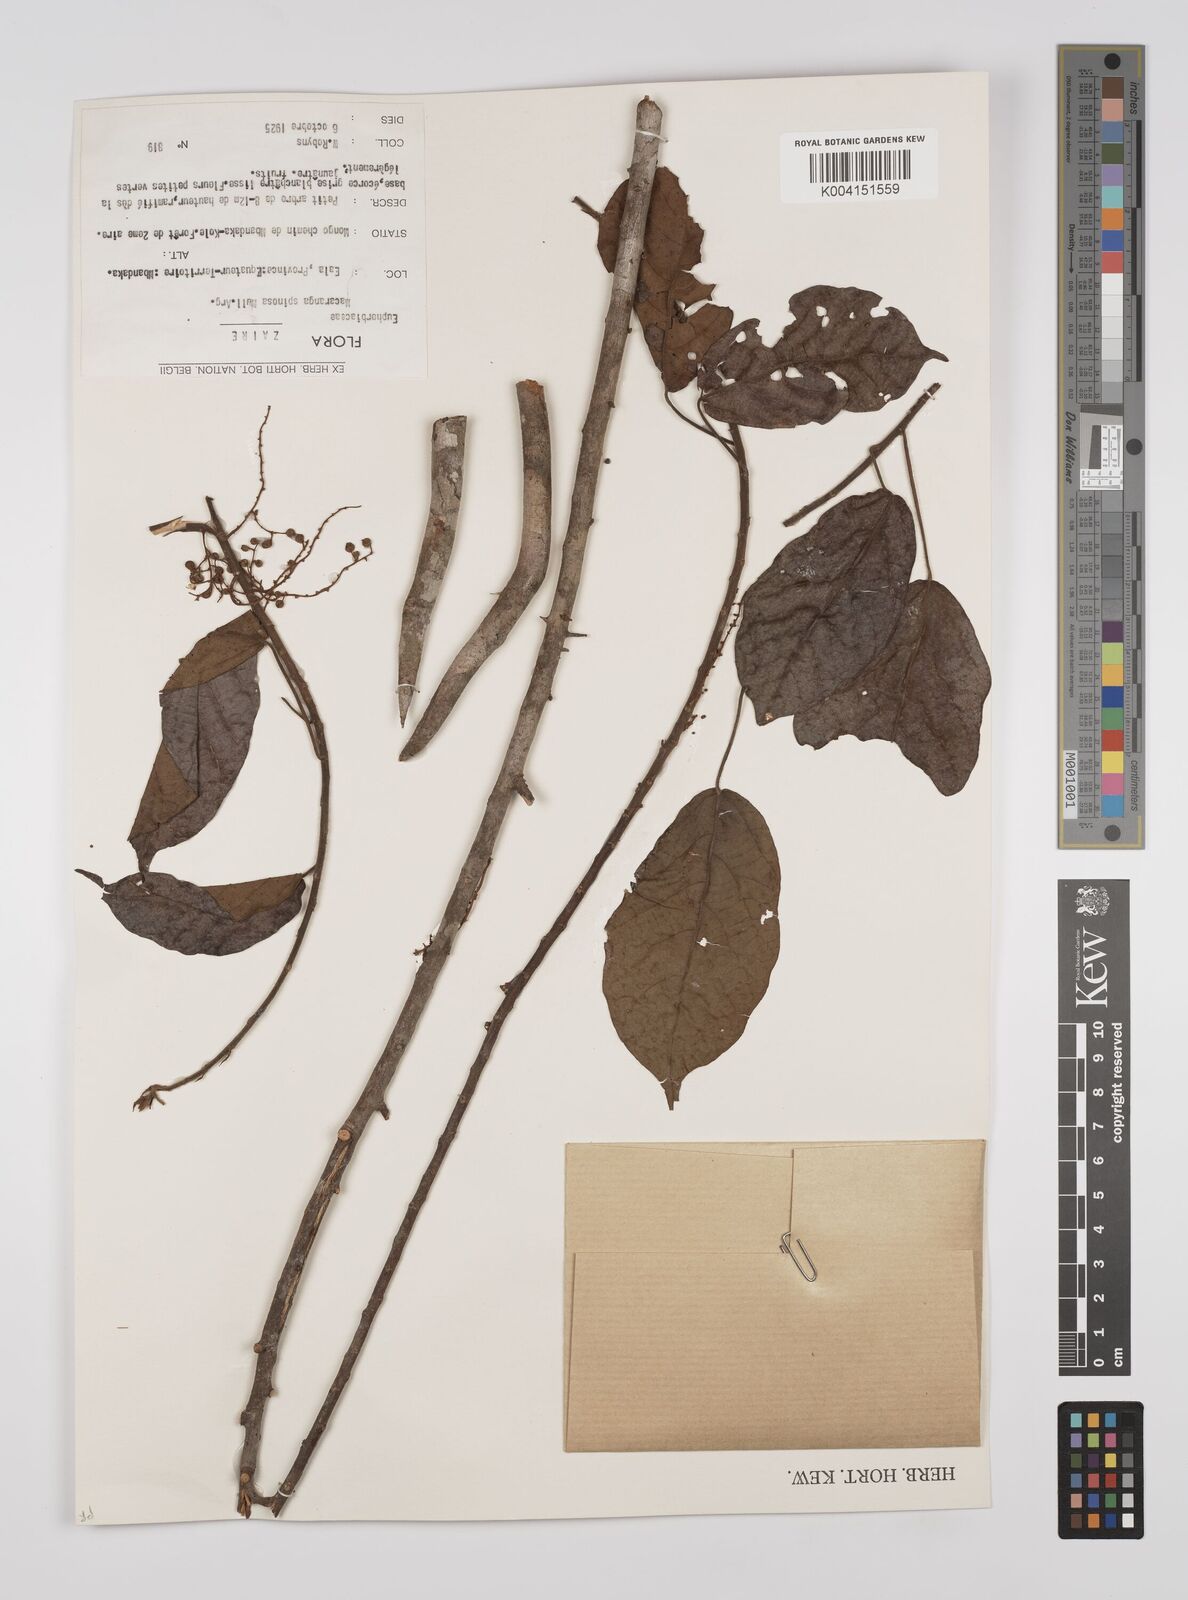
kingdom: Plantae
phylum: Tracheophyta
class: Magnoliopsida
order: Malpighiales
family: Euphorbiaceae
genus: Macaranga
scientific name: Macaranga spinosa
